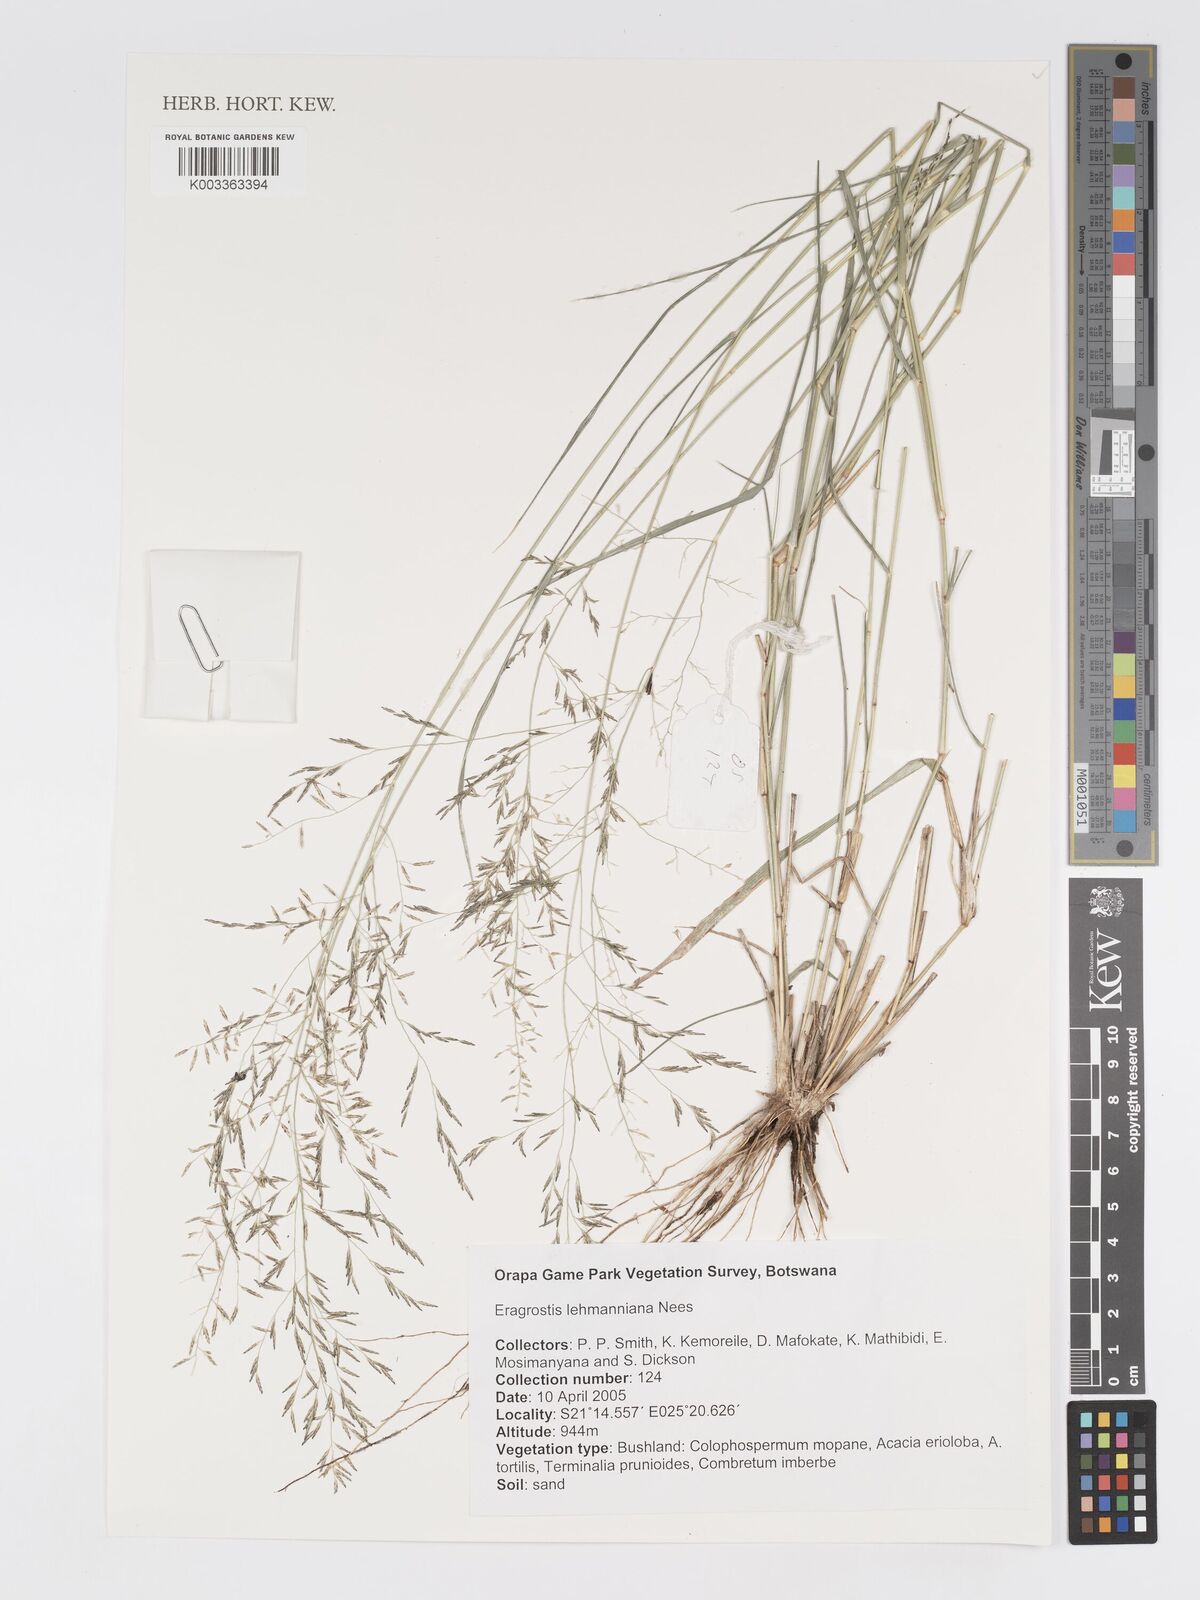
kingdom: Plantae
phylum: Tracheophyta
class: Liliopsida
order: Poales
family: Poaceae
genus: Eragrostis
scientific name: Eragrostis lehmanniana
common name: Lehmann lovegrass
